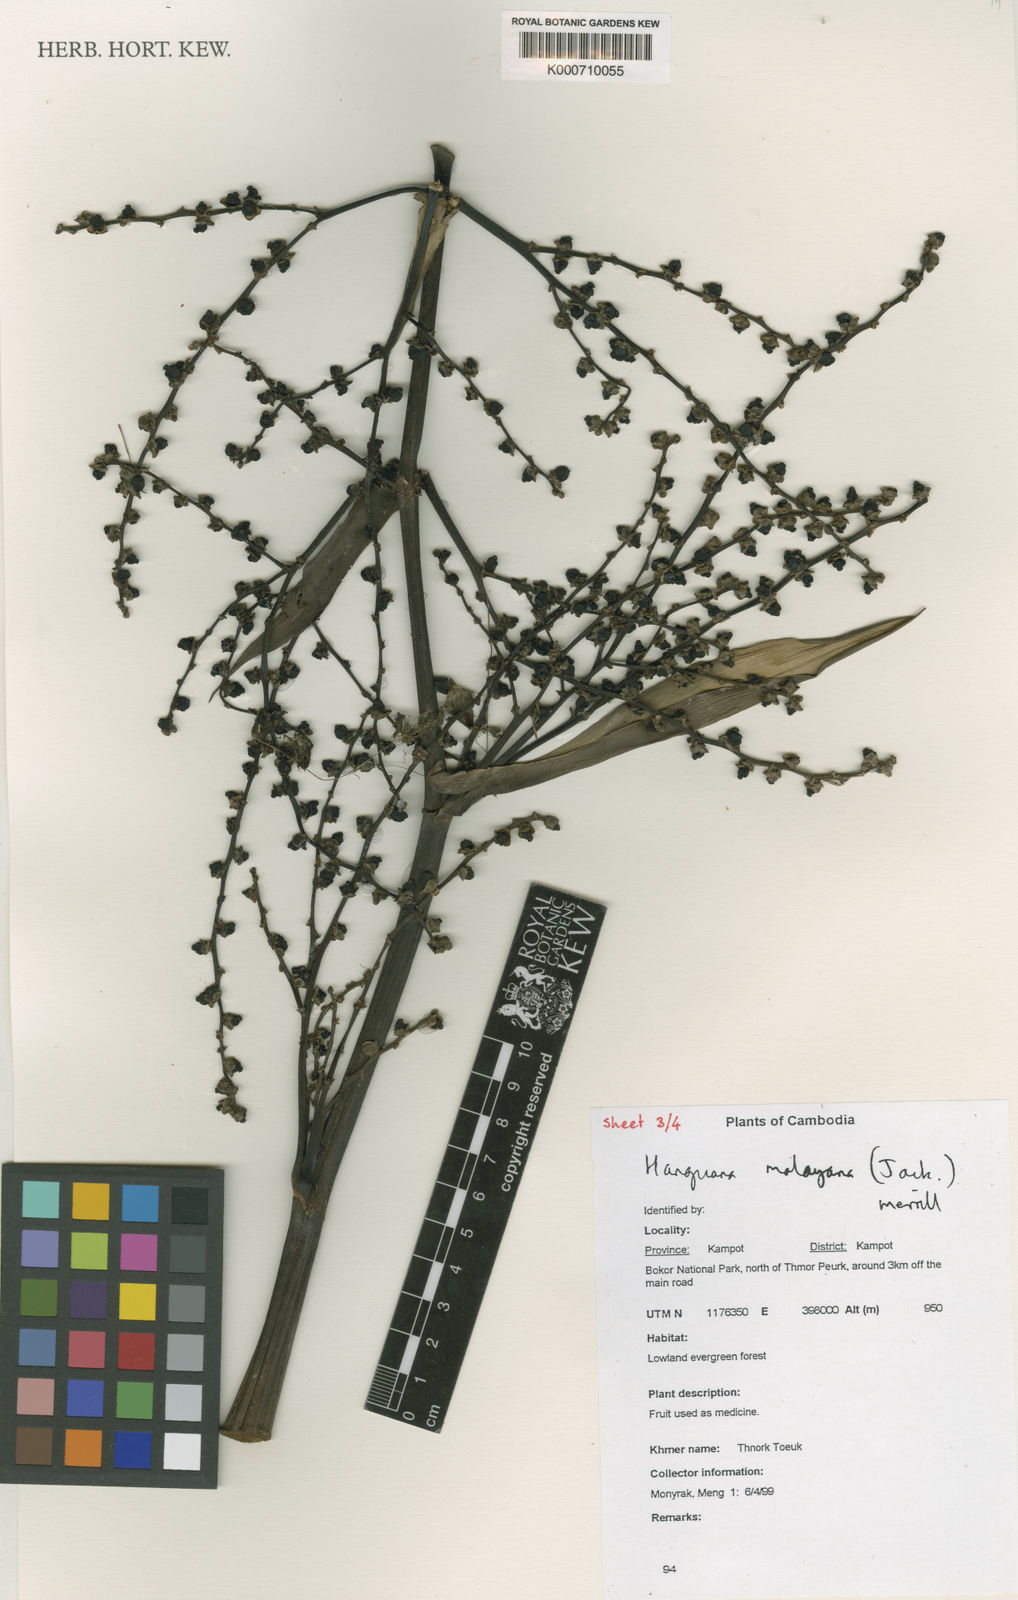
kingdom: Plantae
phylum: Tracheophyta
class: Liliopsida
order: Commelinales
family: Hanguanaceae
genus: Hanguana
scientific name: Hanguana malayana
